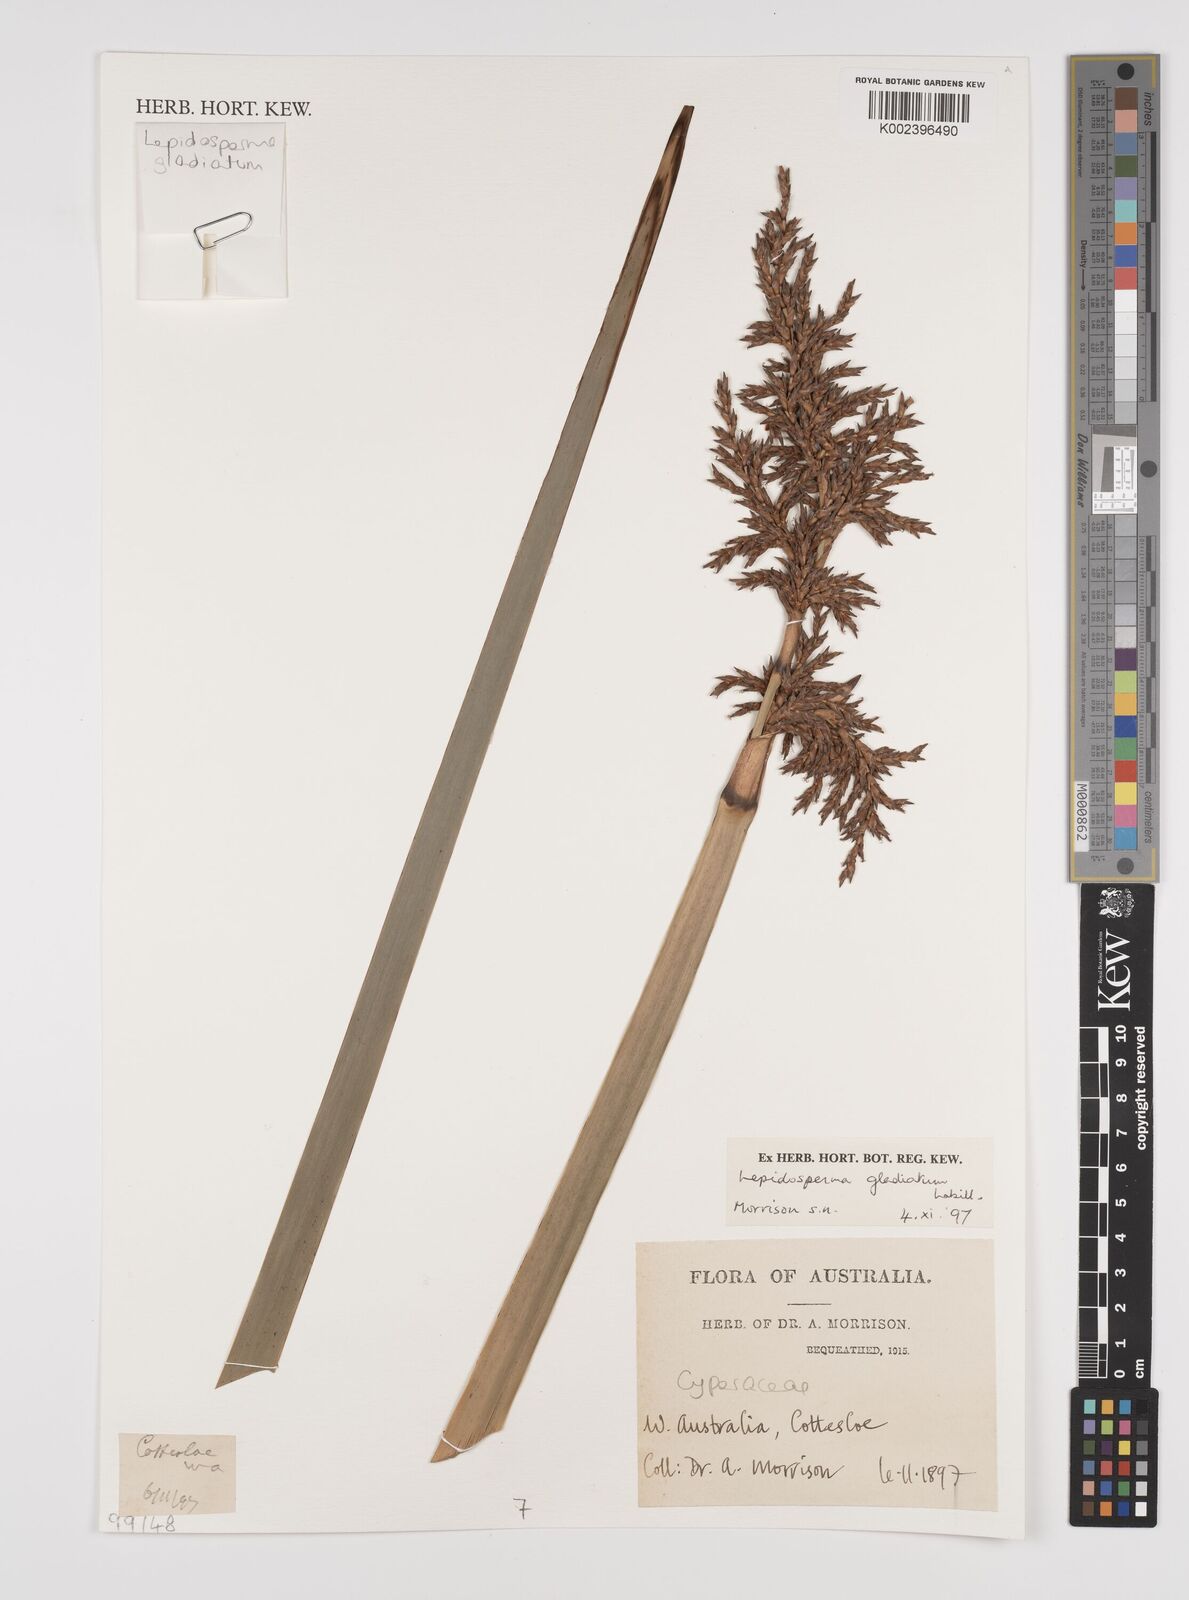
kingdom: Plantae
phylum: Tracheophyta
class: Liliopsida
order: Poales
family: Cyperaceae
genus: Lepidosperma
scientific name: Lepidosperma gladiatum
